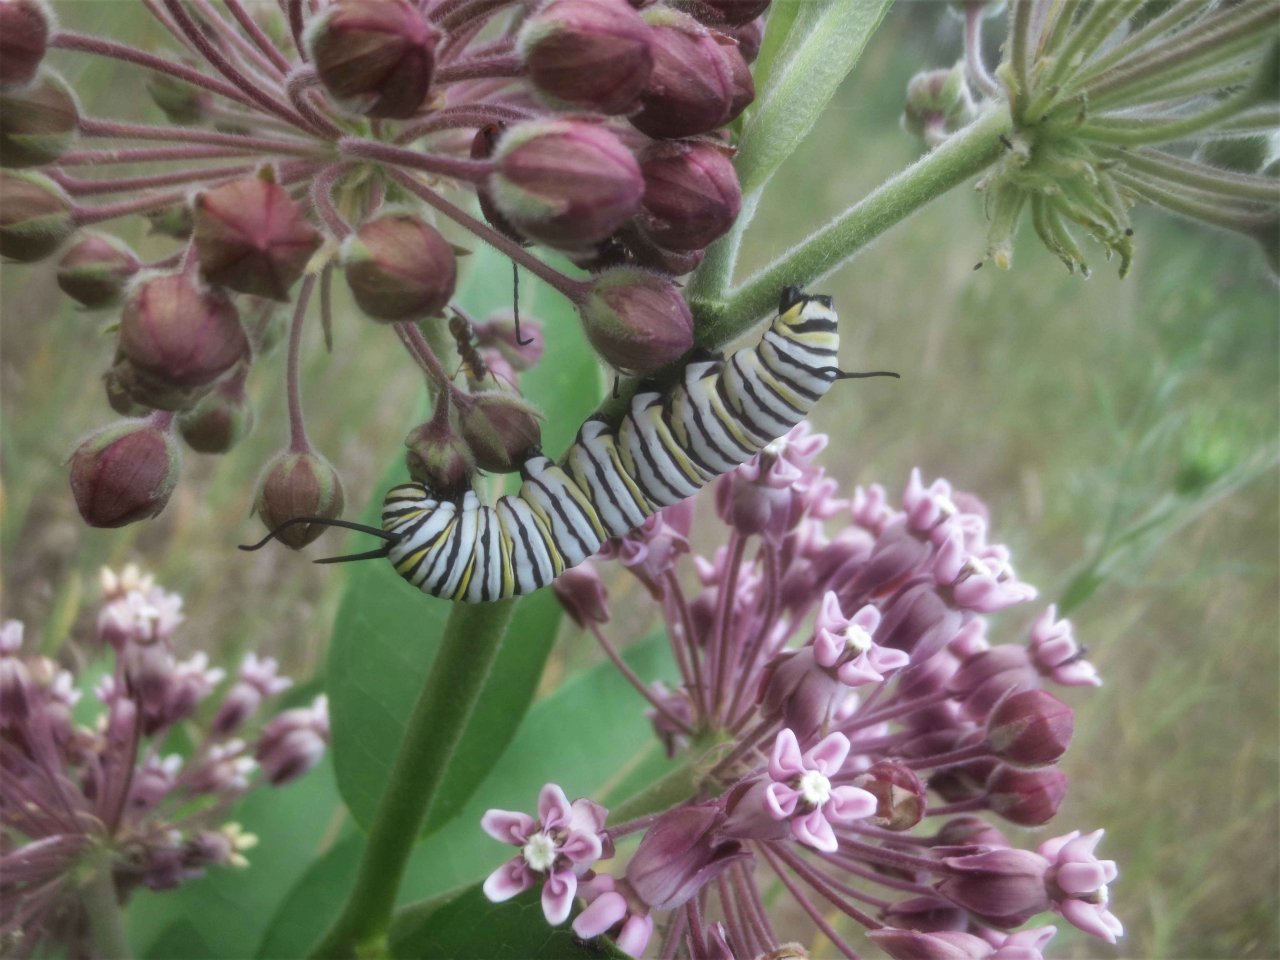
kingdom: Animalia
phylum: Arthropoda
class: Insecta
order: Lepidoptera
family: Nymphalidae
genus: Danaus
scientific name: Danaus plexippus
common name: Monarch
